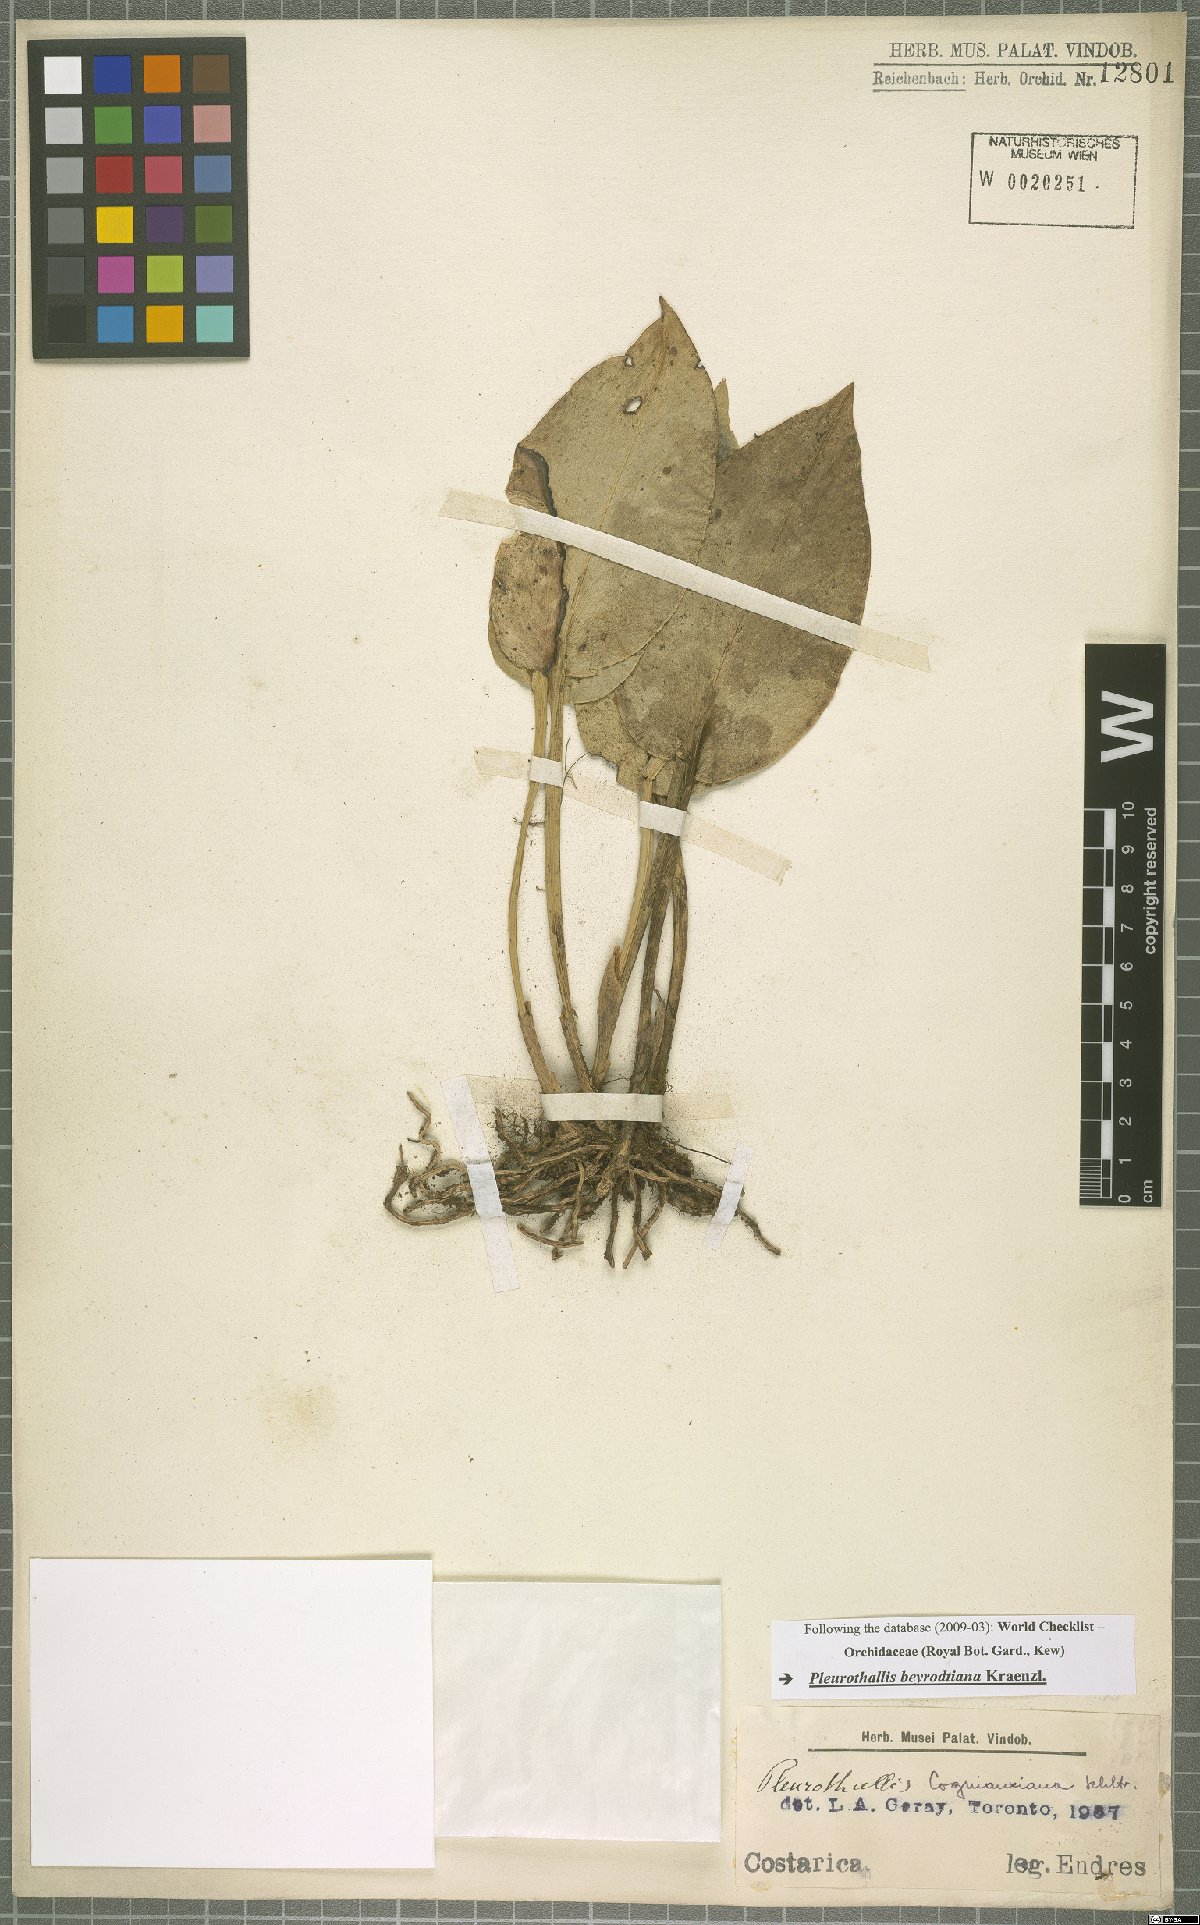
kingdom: Plantae
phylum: Tracheophyta
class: Liliopsida
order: Asparagales
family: Orchidaceae
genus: Acianthera
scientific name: Acianthera beyrodtiana
